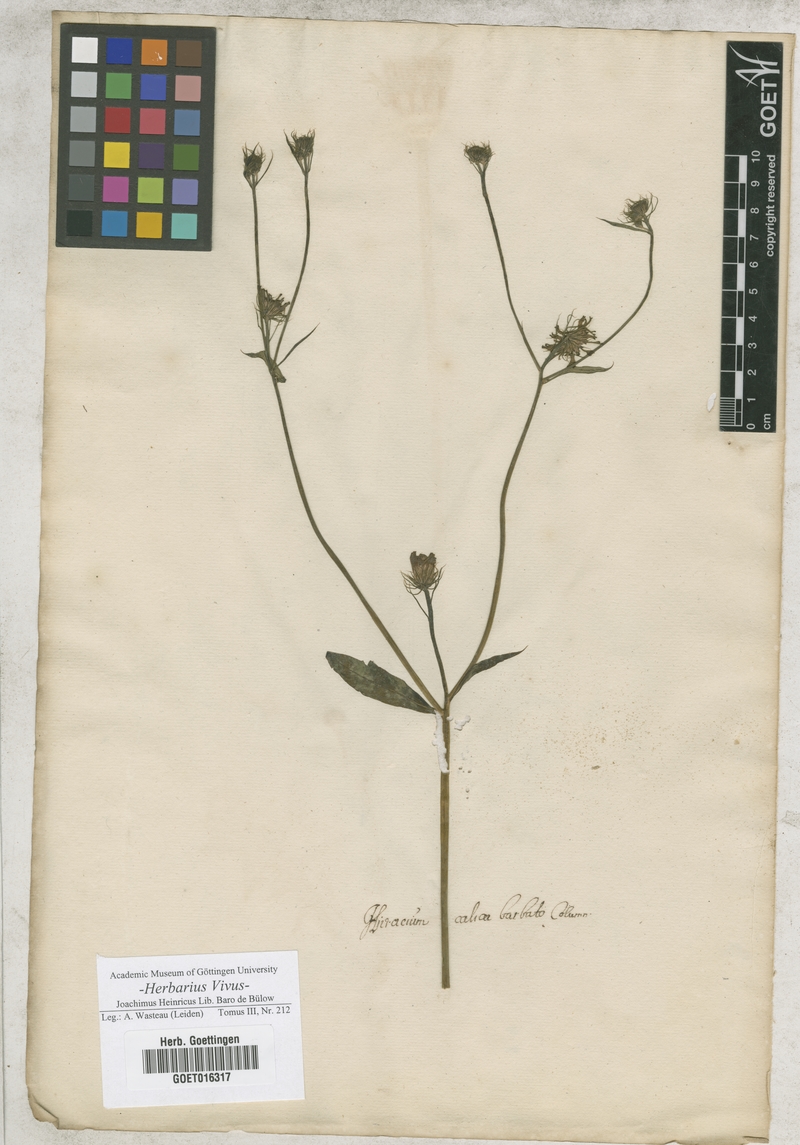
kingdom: Plantae
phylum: Tracheophyta
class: Magnoliopsida
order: Asterales
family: Asteraceae
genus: Tolpis
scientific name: Tolpis barbata
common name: Yellow hawkweed
